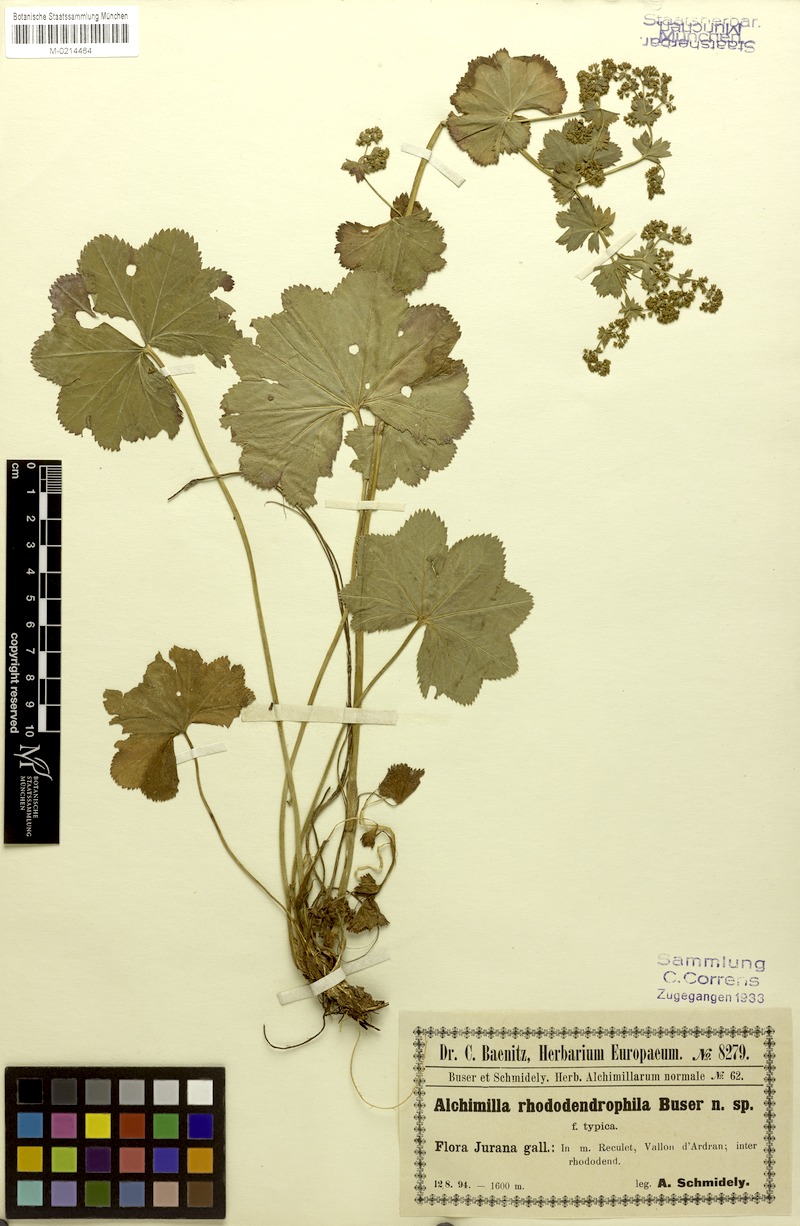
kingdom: Plantae
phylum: Tracheophyta
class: Magnoliopsida
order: Rosales
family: Rosaceae
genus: Alchemilla
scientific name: Alchemilla rhododendrophila
